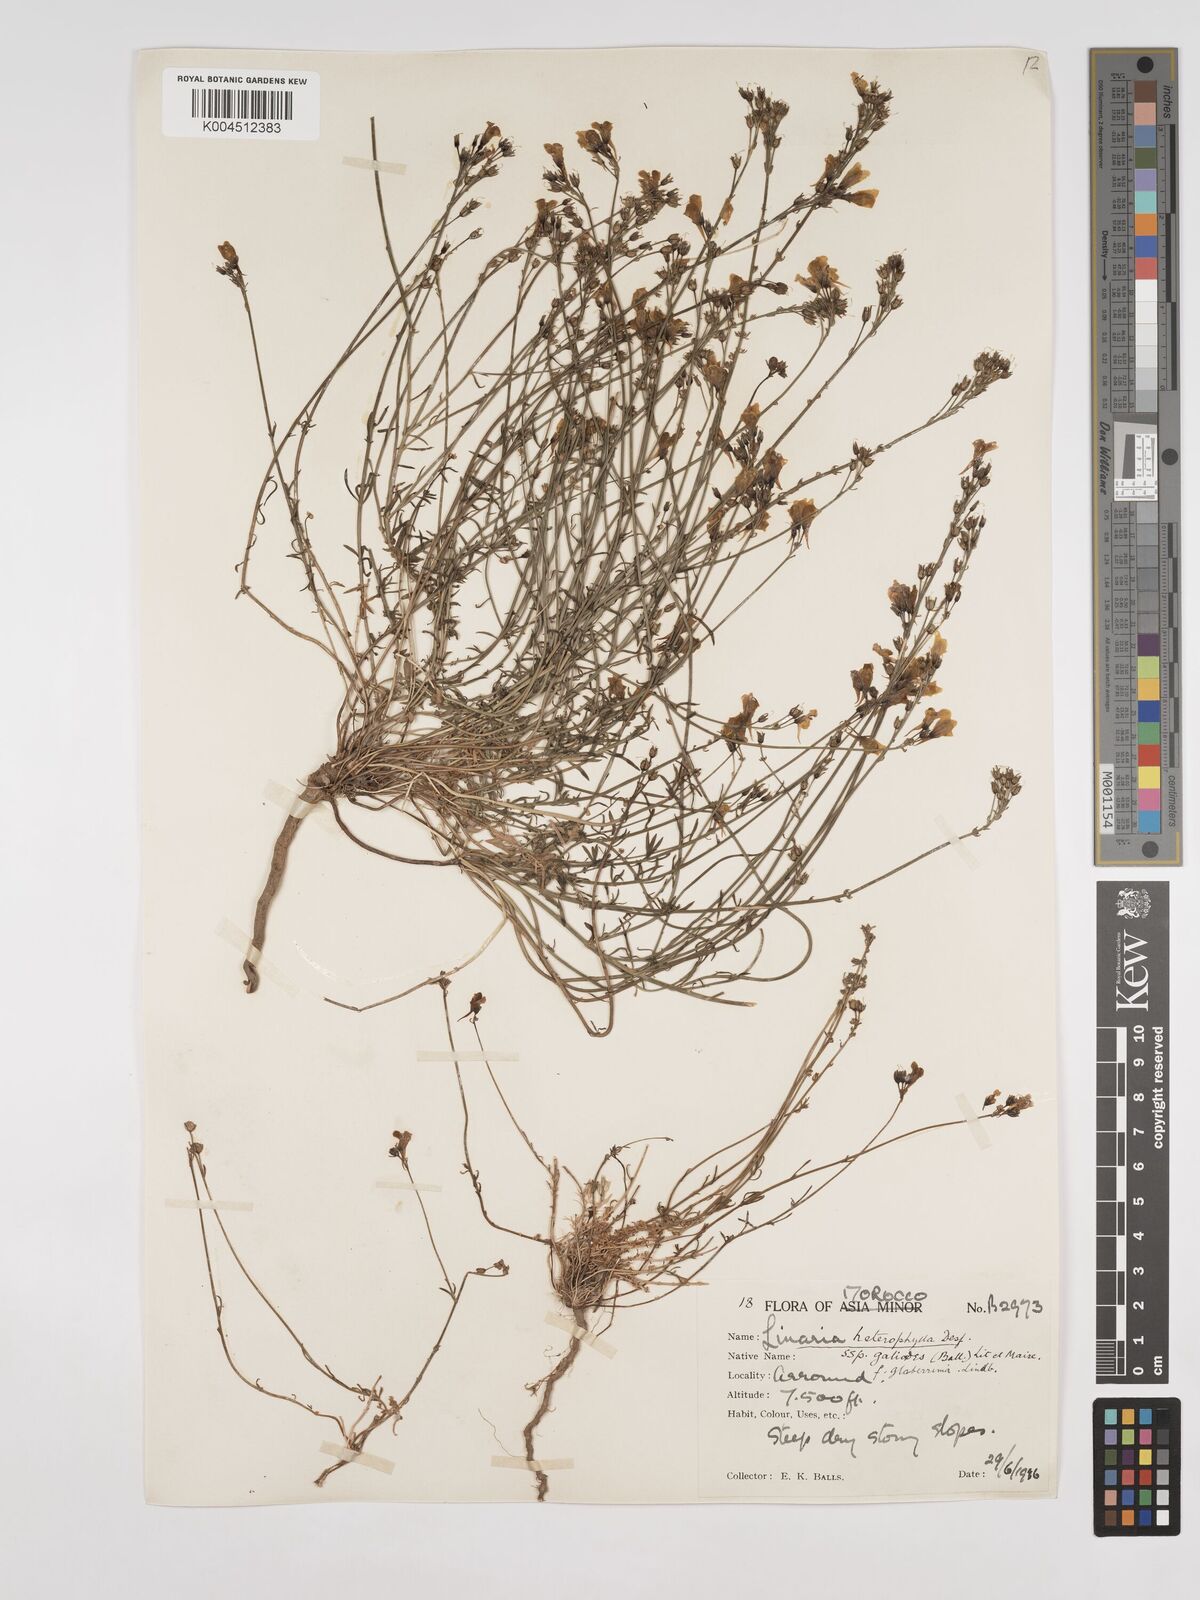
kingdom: Plantae
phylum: Tracheophyta
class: Magnoliopsida
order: Lamiales
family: Plantaginaceae
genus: Linaria
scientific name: Linaria
